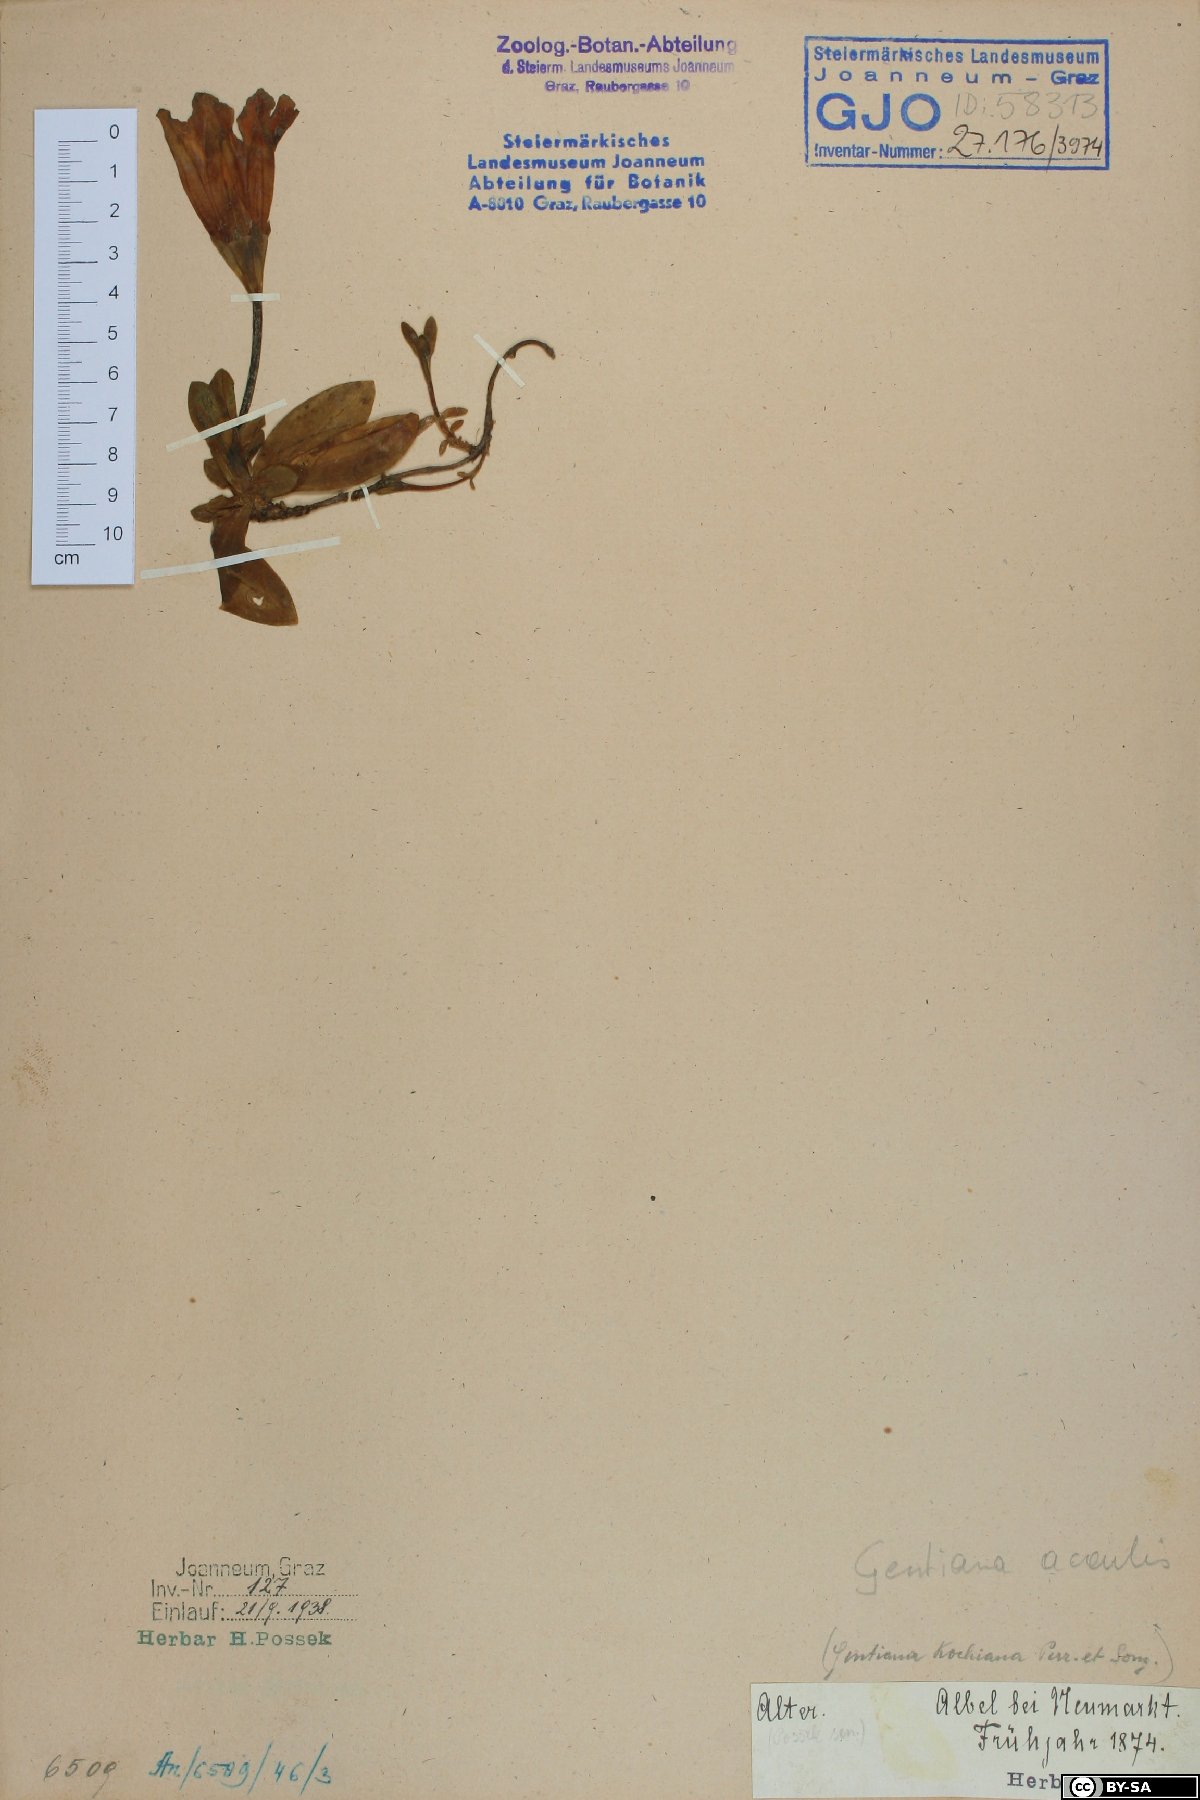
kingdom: Plantae
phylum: Tracheophyta
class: Magnoliopsida
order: Gentianales
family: Gentianaceae
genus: Gentiana
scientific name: Gentiana acaulis
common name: Trumpet gentian
